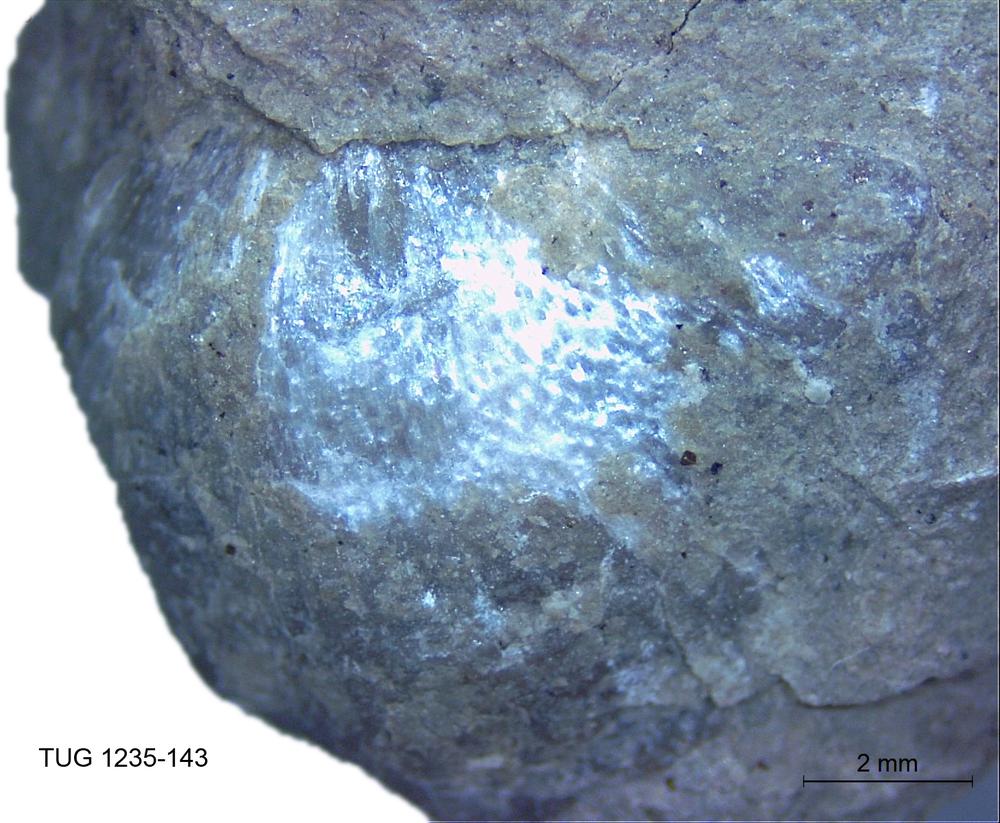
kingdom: Animalia
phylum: Brachiopoda
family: Oldhaminidae
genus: Eoplectodonta
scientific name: Eoplectodonta
